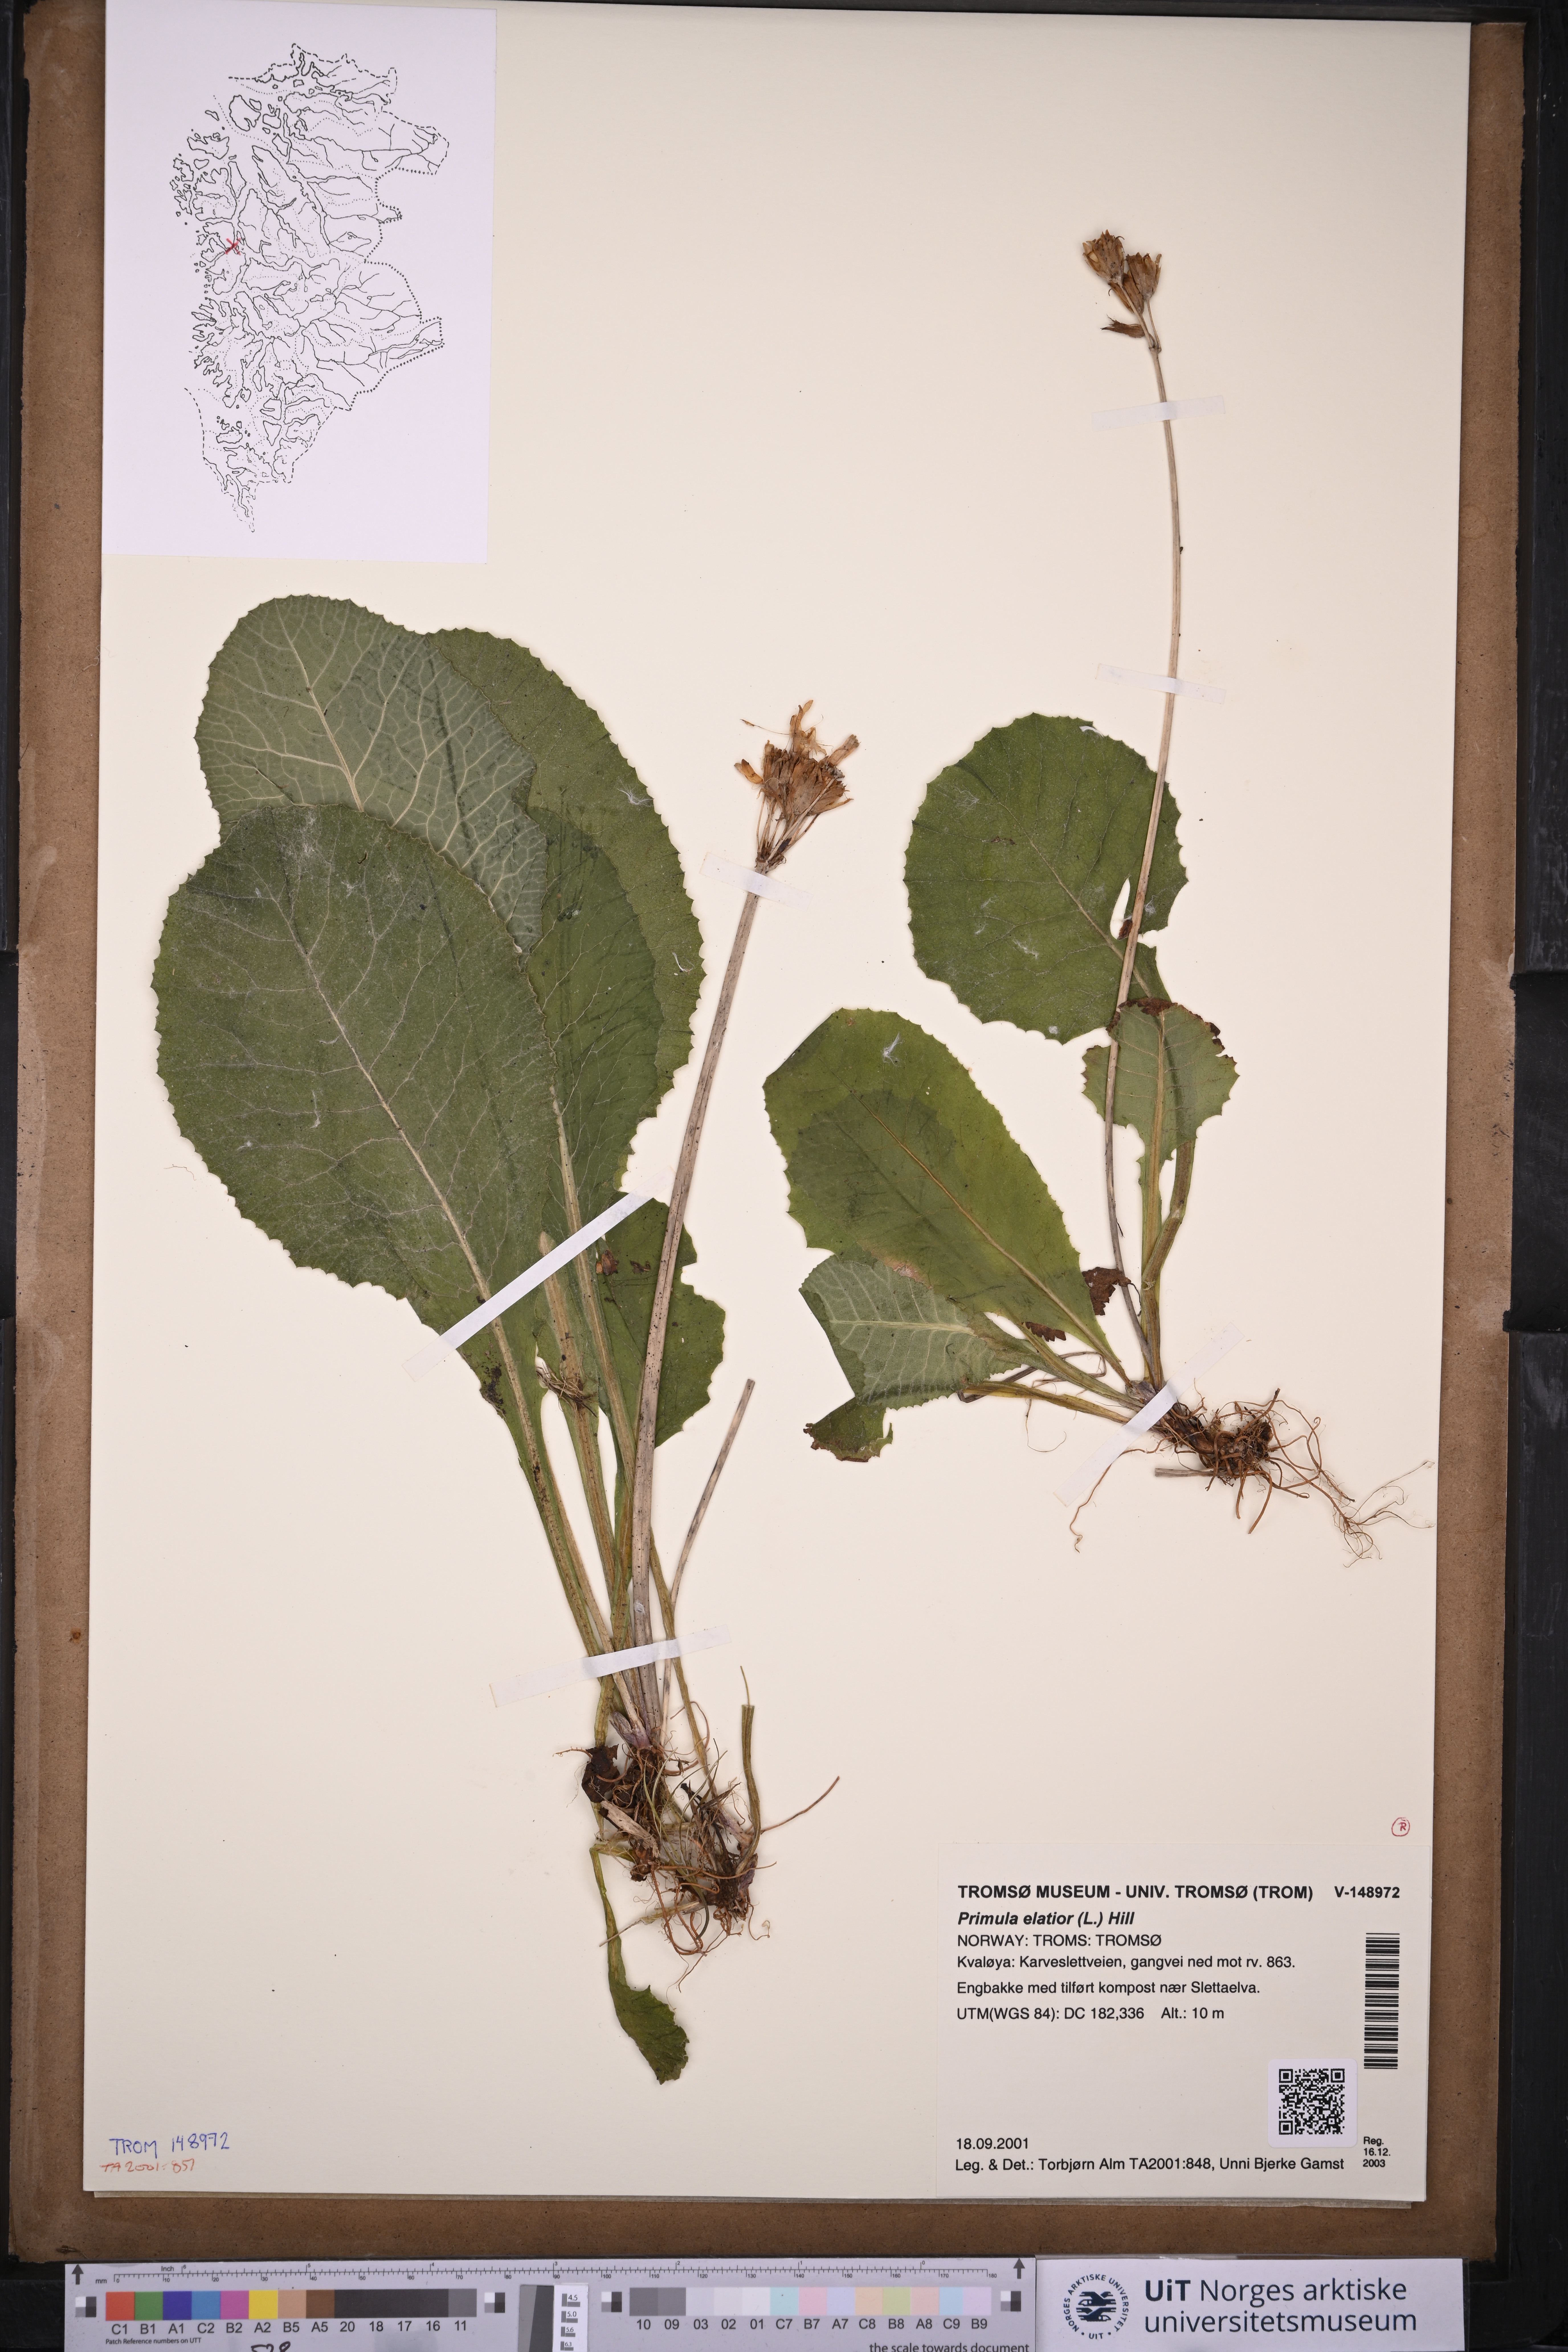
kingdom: Plantae
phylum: Tracheophyta
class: Magnoliopsida
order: Ericales
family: Primulaceae
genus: Primula
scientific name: Primula elatior
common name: Oxlip
